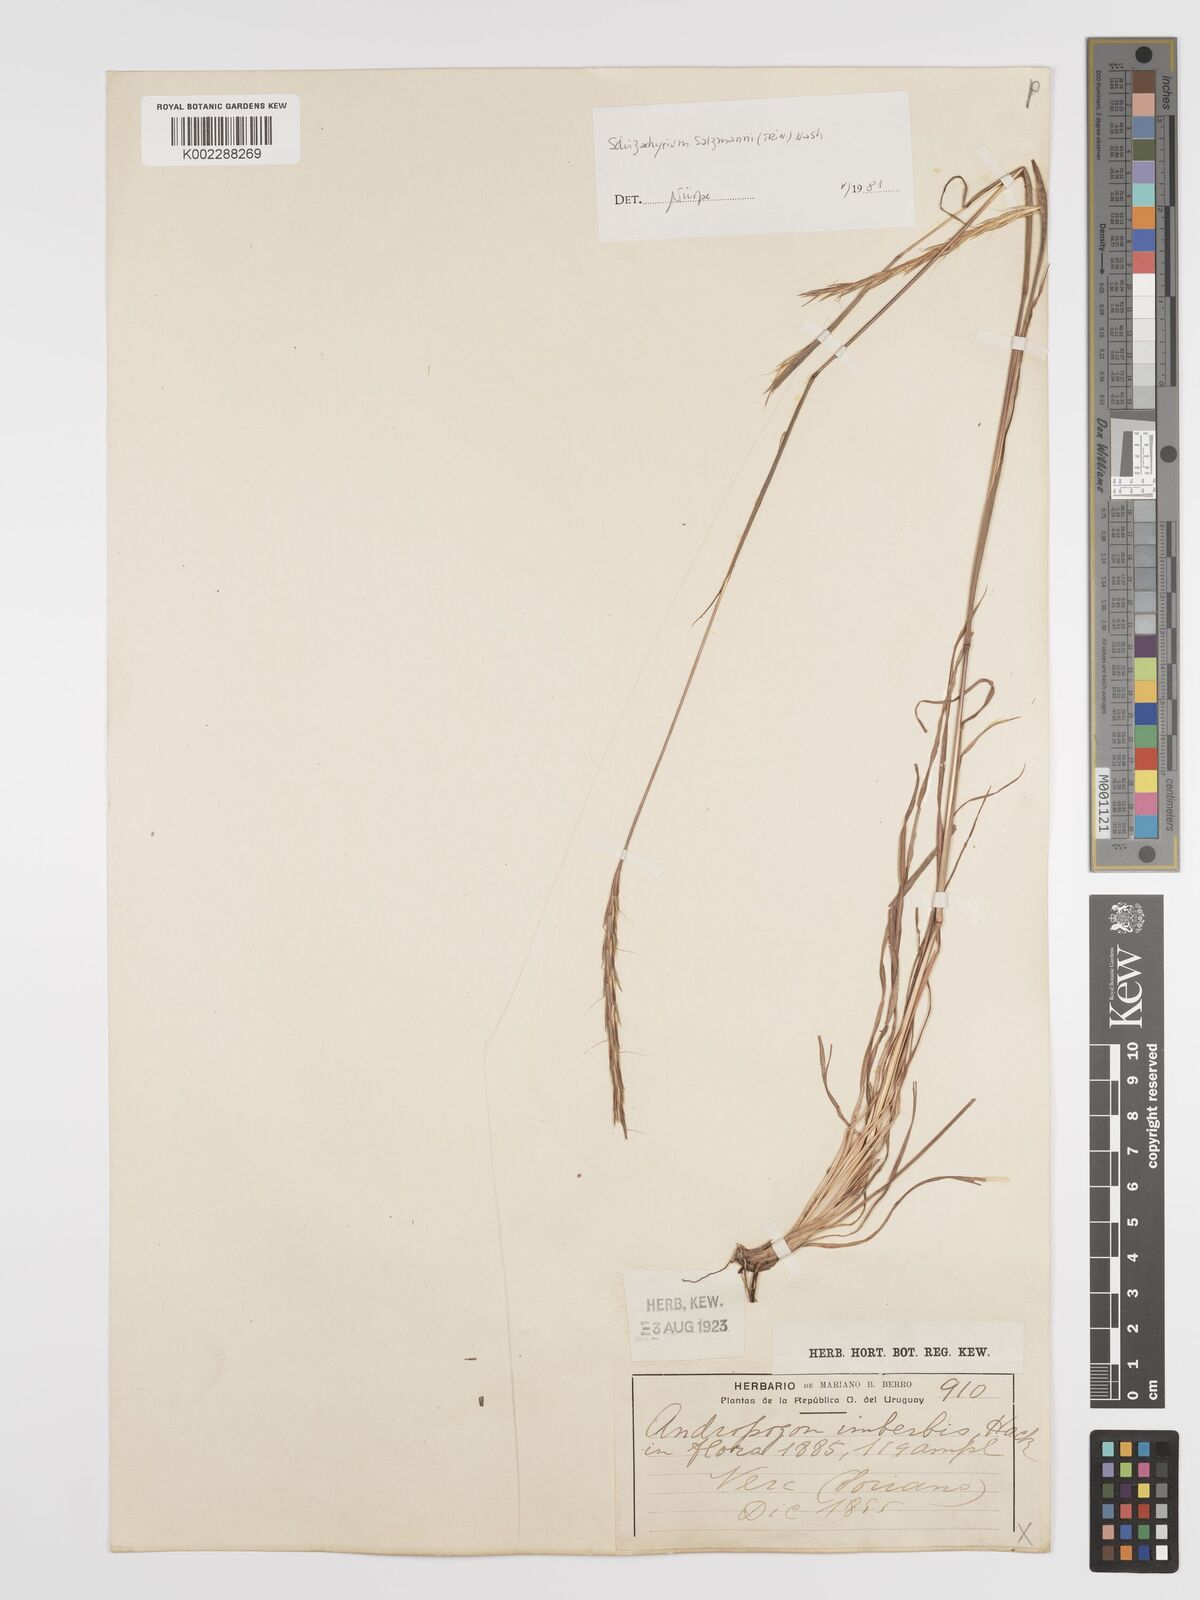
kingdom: Plantae
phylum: Tracheophyta
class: Liliopsida
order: Poales
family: Poaceae
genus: Andropogon
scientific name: Andropogon salzmannii
